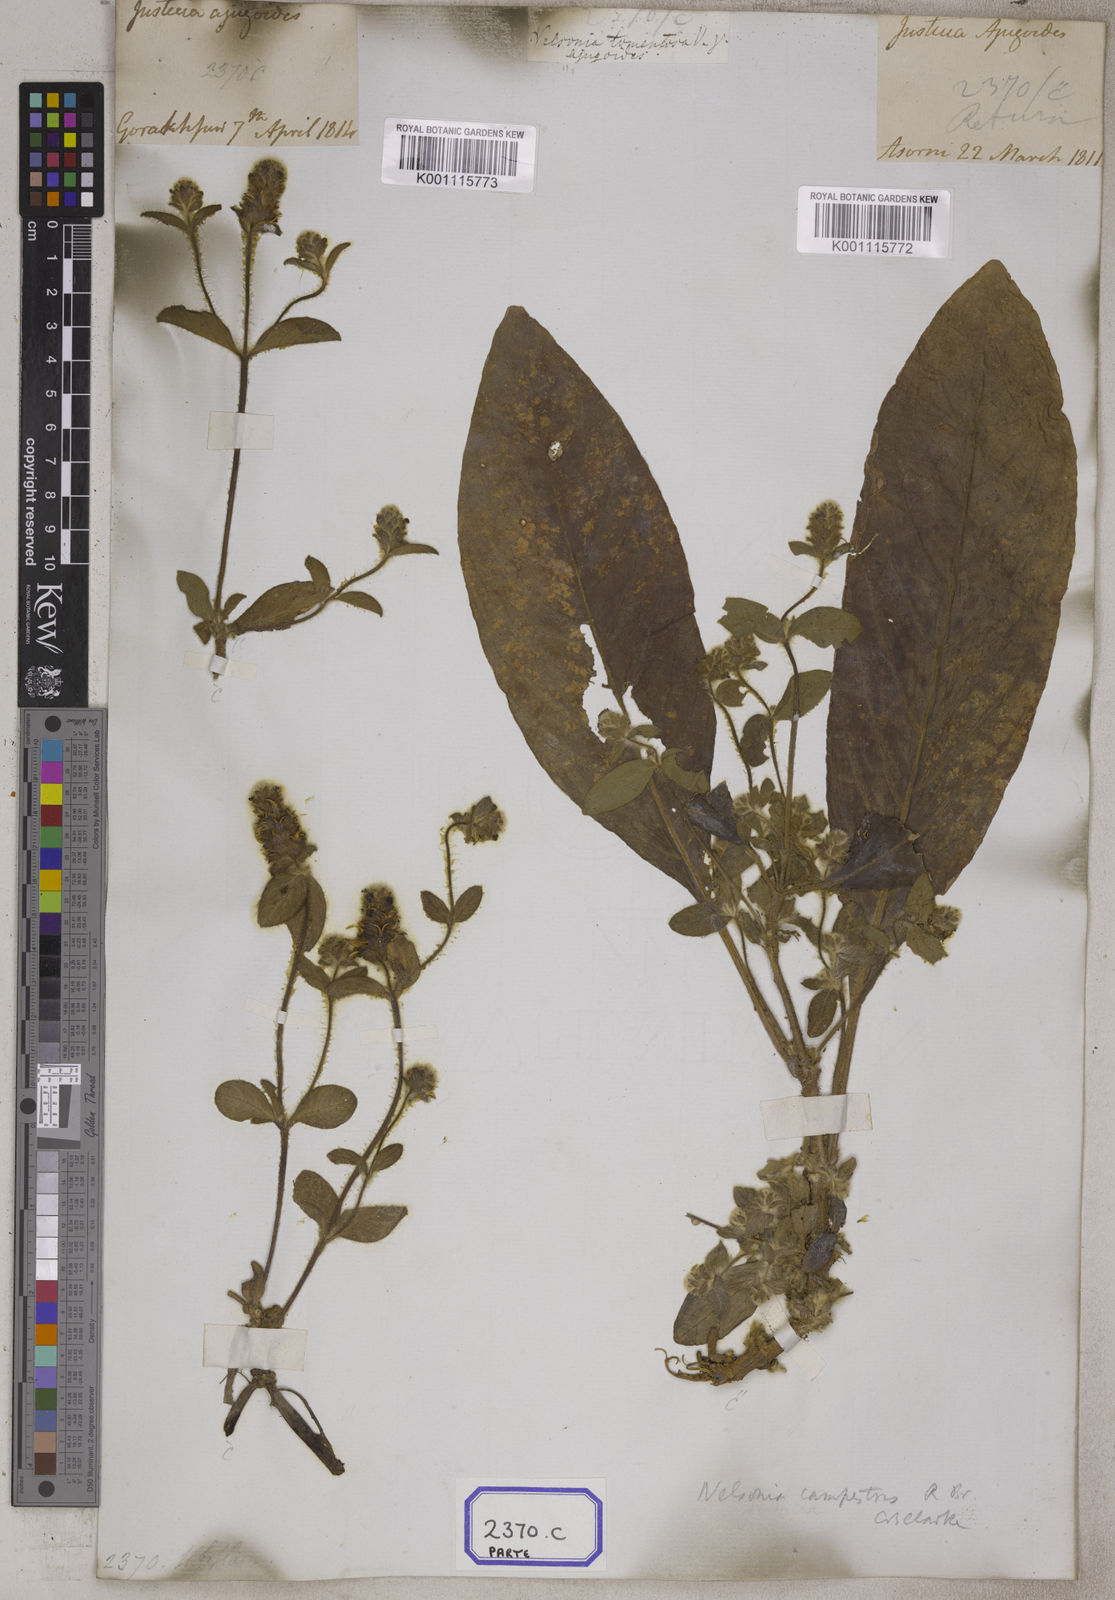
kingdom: Plantae
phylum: Tracheophyta
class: Magnoliopsida
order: Lamiales
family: Acanthaceae
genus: Nelsonia
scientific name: Nelsonia canescens
